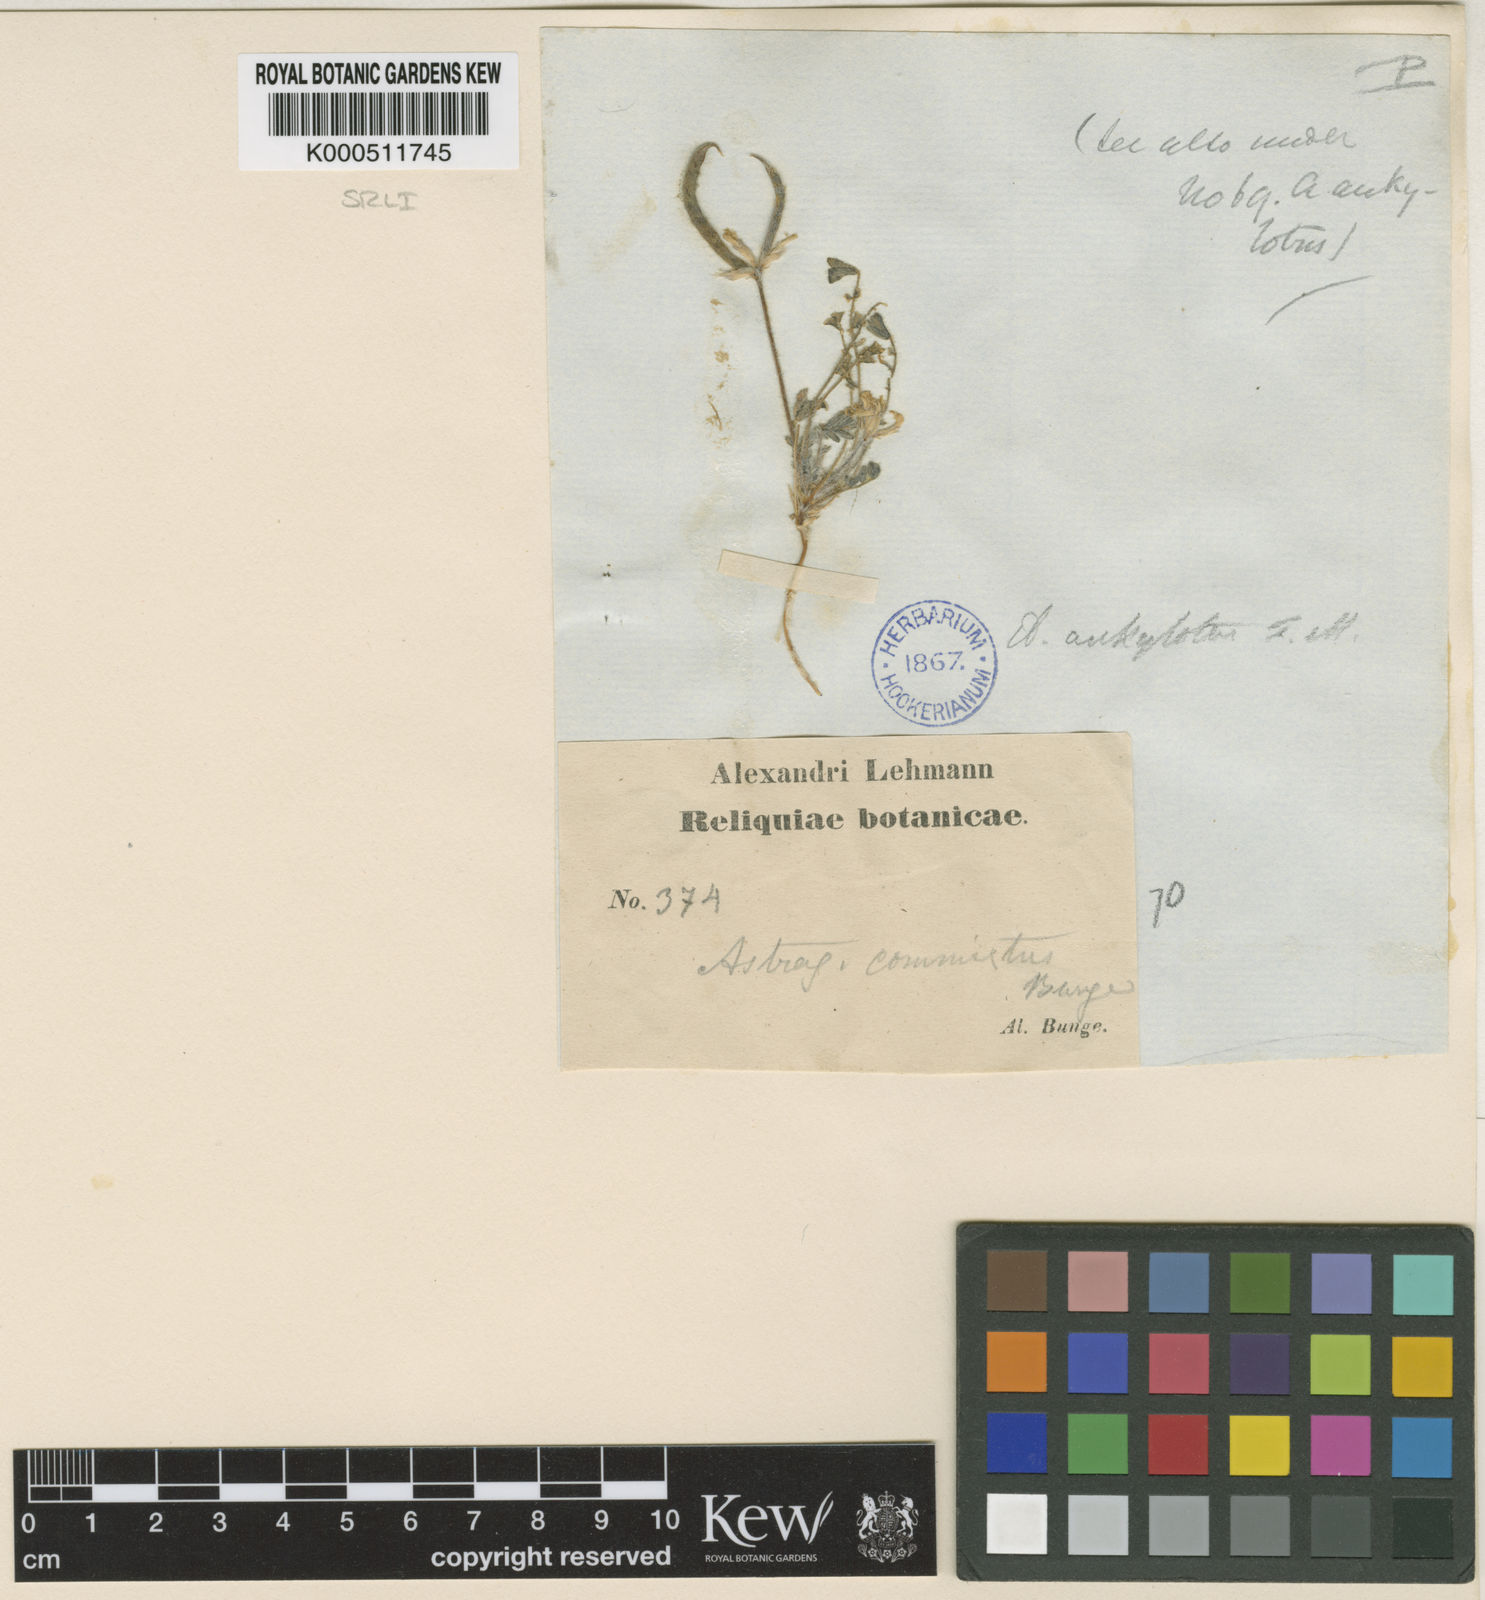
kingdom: Plantae
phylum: Tracheophyta
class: Magnoliopsida
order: Fabales
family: Fabaceae
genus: Astragalus
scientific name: Astragalus
